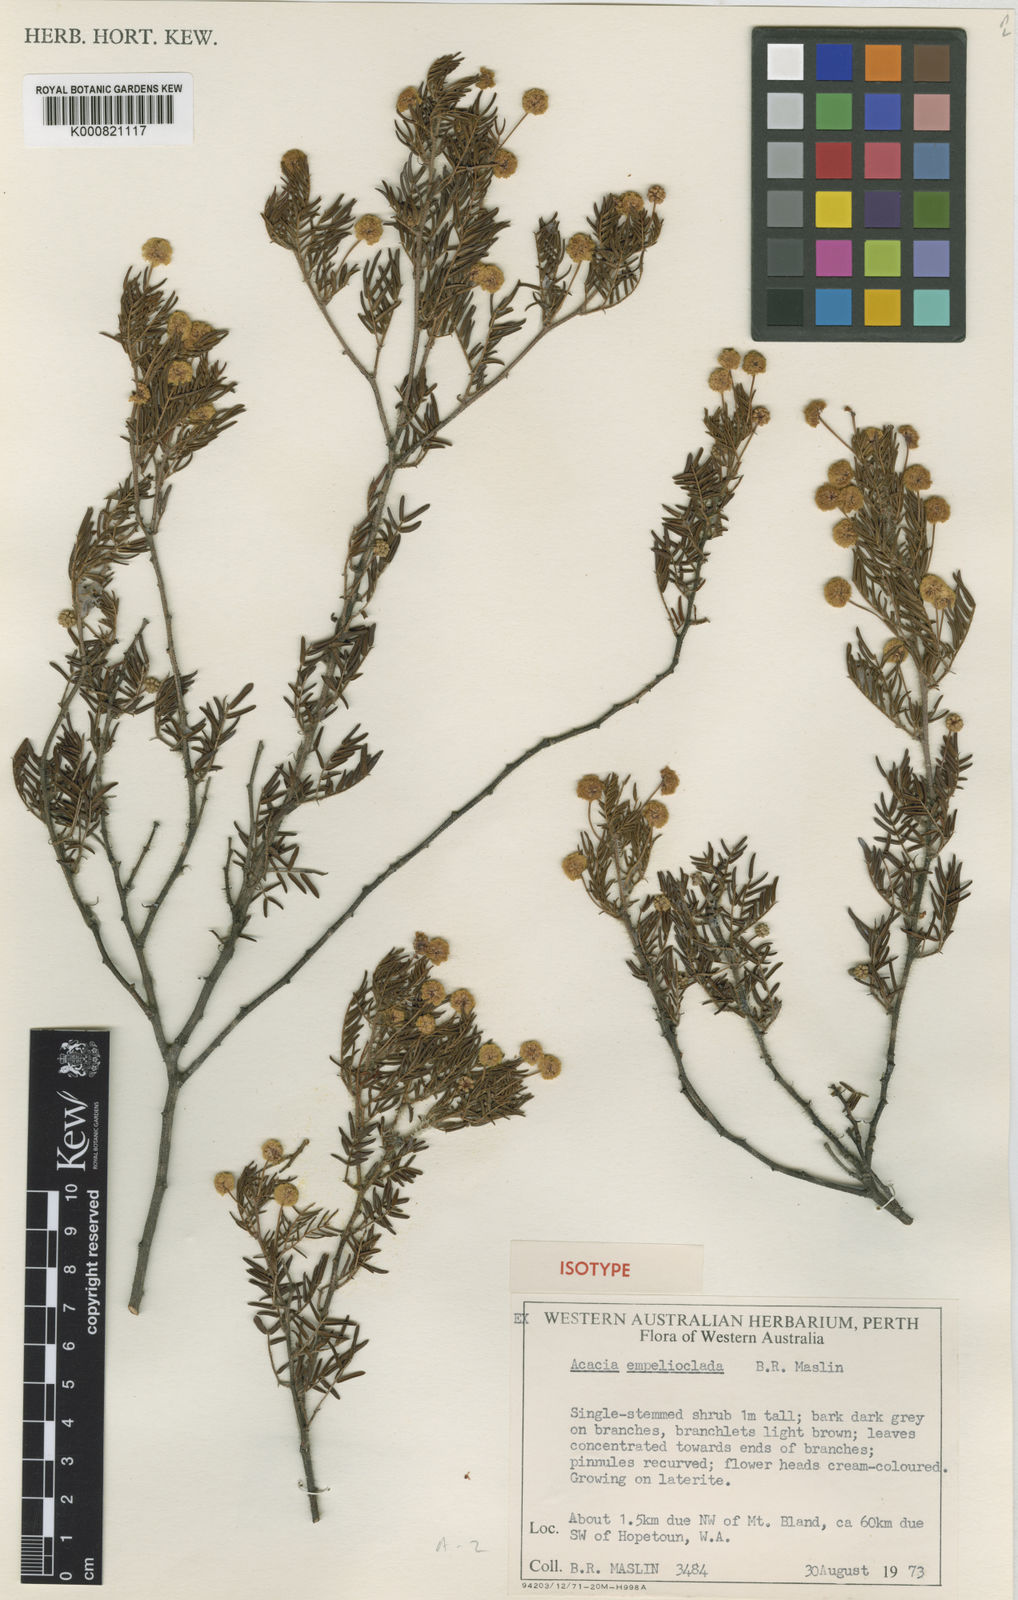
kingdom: Plantae
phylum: Tracheophyta
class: Magnoliopsida
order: Fabales
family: Fabaceae
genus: Acacia
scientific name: Acacia empelioclada
